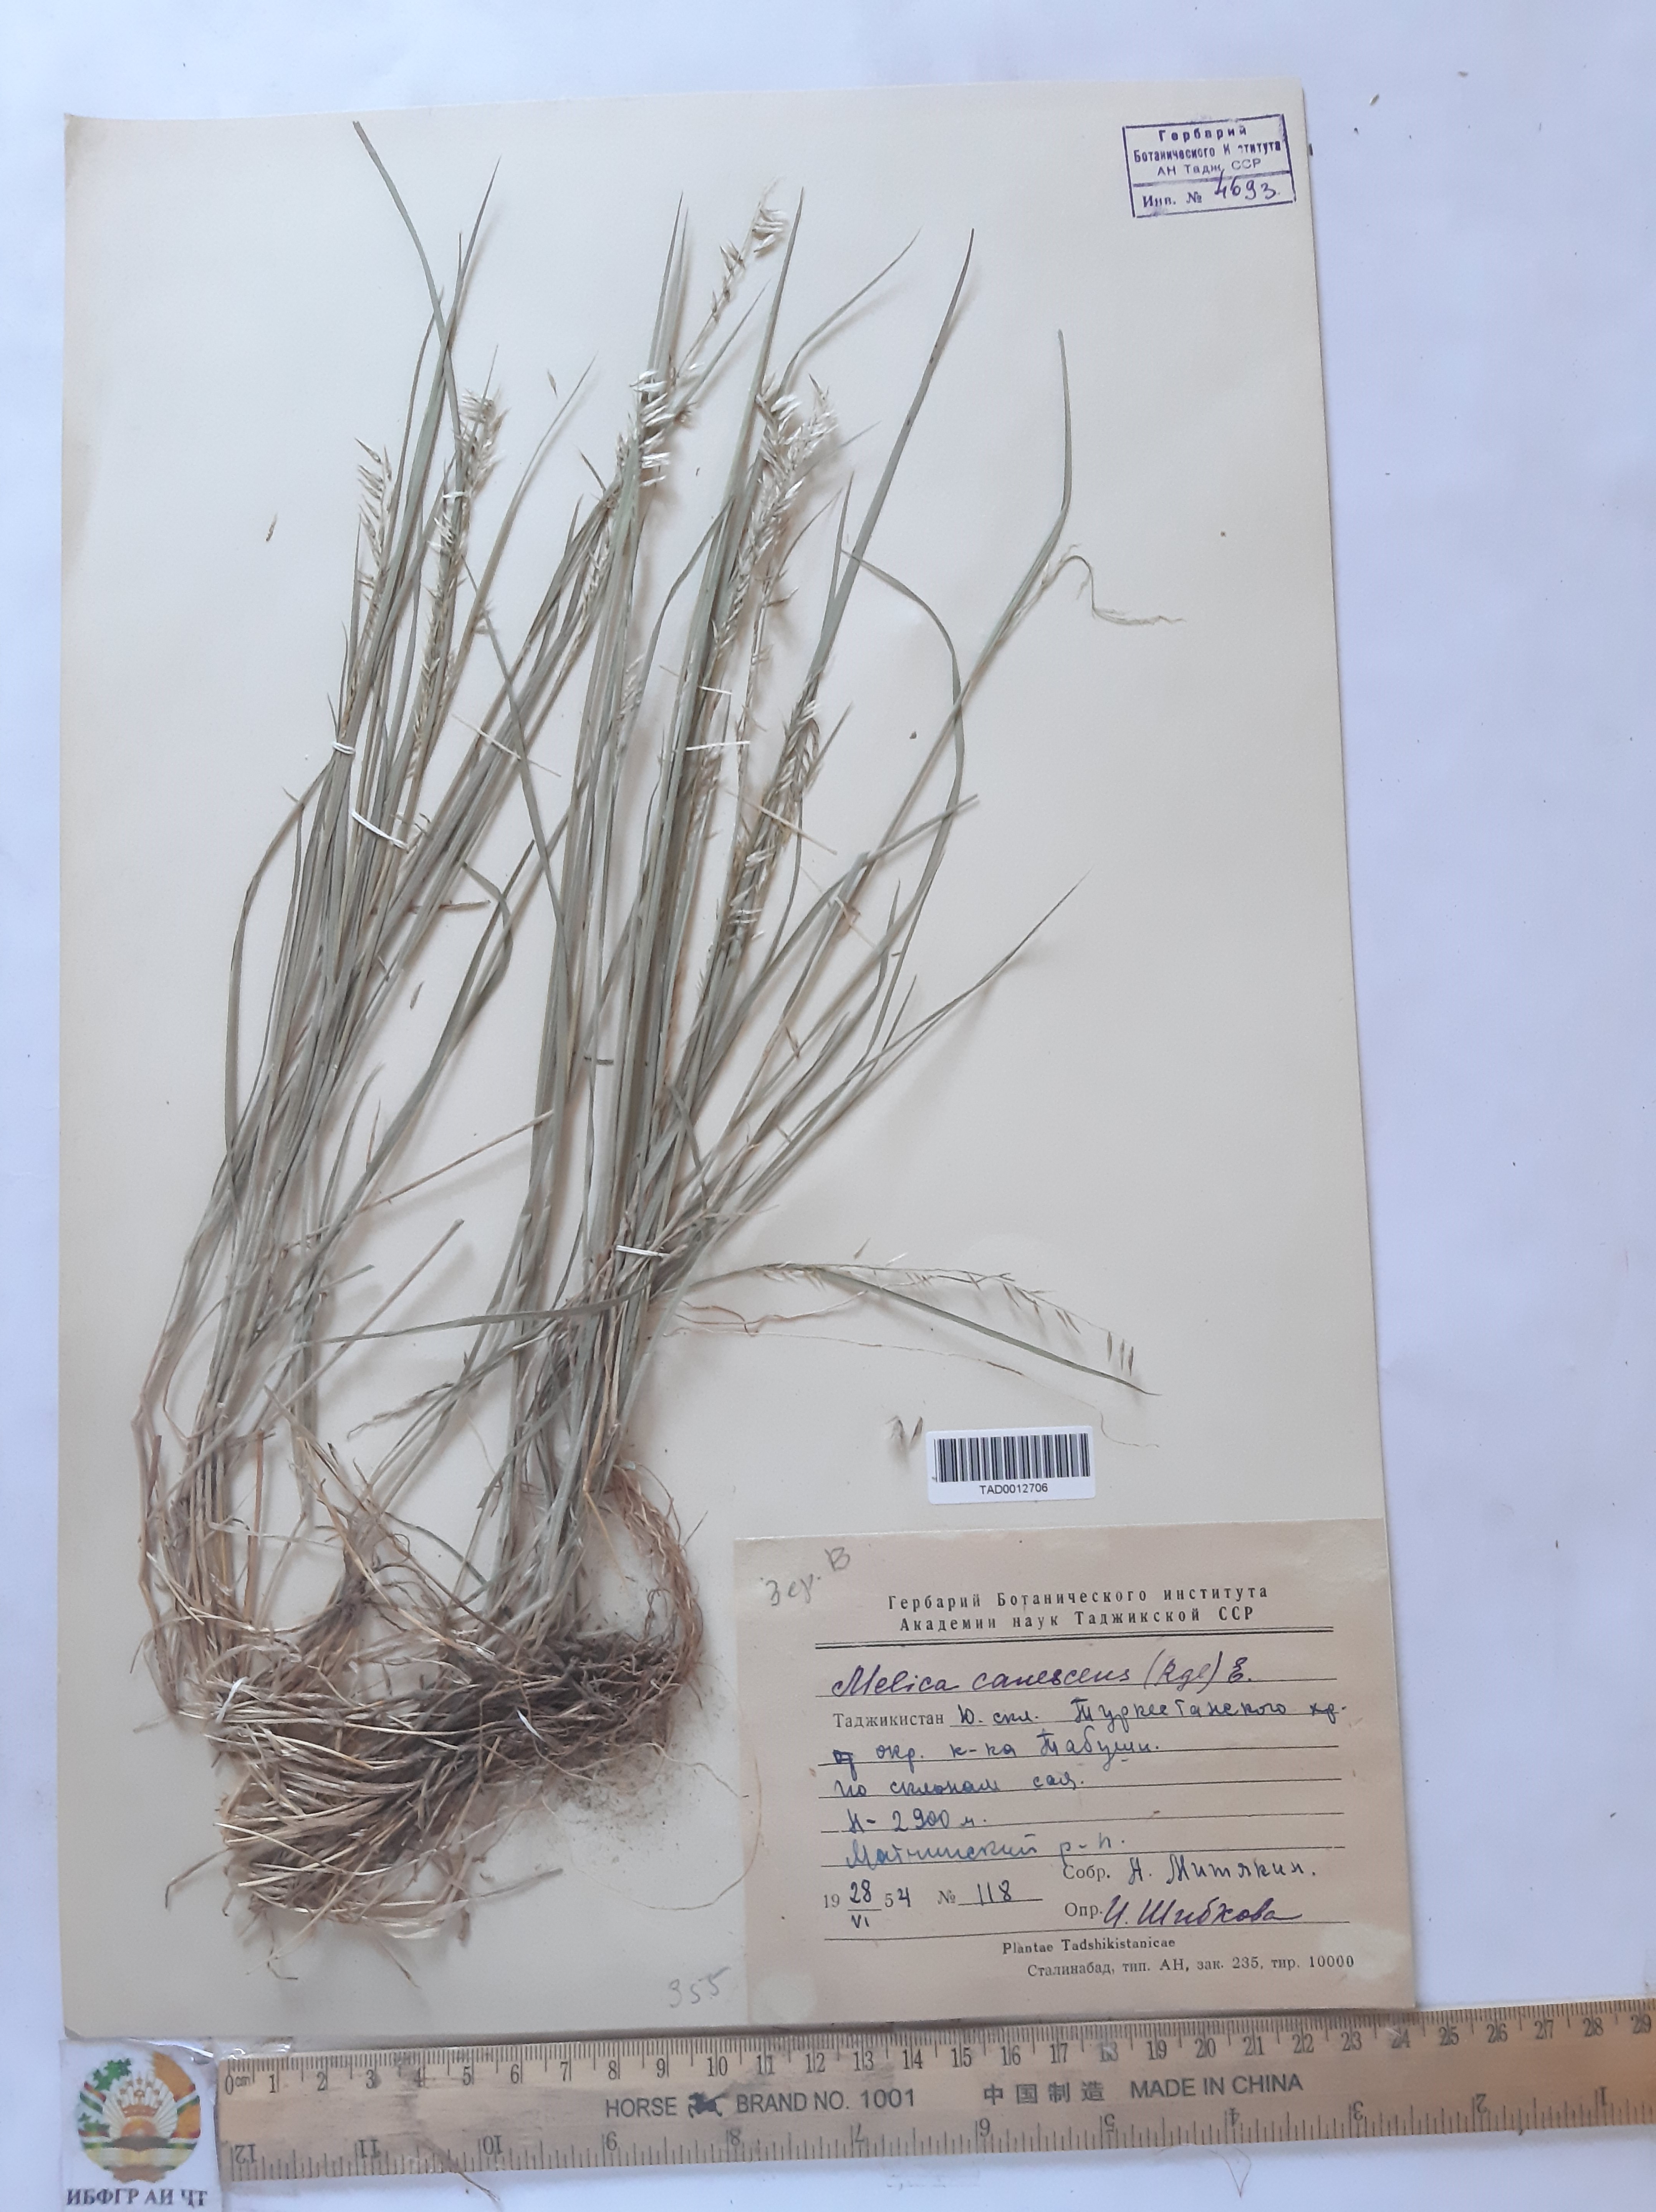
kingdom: Plantae
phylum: Tracheophyta
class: Liliopsida
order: Poales
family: Poaceae
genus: Melica
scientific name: Melica persica
